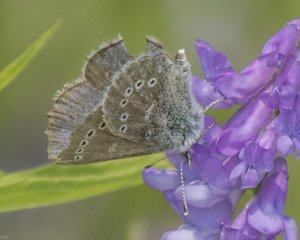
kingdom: Animalia
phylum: Arthropoda
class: Insecta
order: Lepidoptera
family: Lycaenidae
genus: Glaucopsyche
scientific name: Glaucopsyche lygdamus
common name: Silvery Blue
